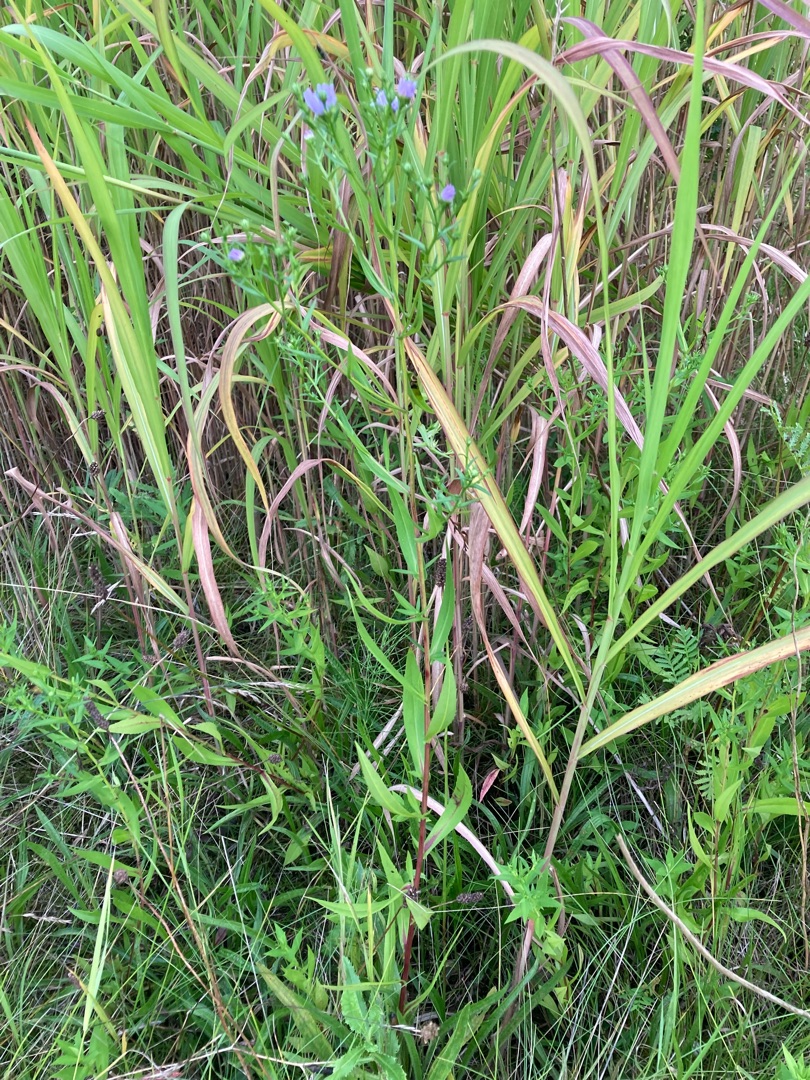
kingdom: Plantae
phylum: Tracheophyta
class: Magnoliopsida
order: Asterales
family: Asteraceae
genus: Symphyotrichum
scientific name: Symphyotrichum novi-belgii
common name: Nybelgisk asters
